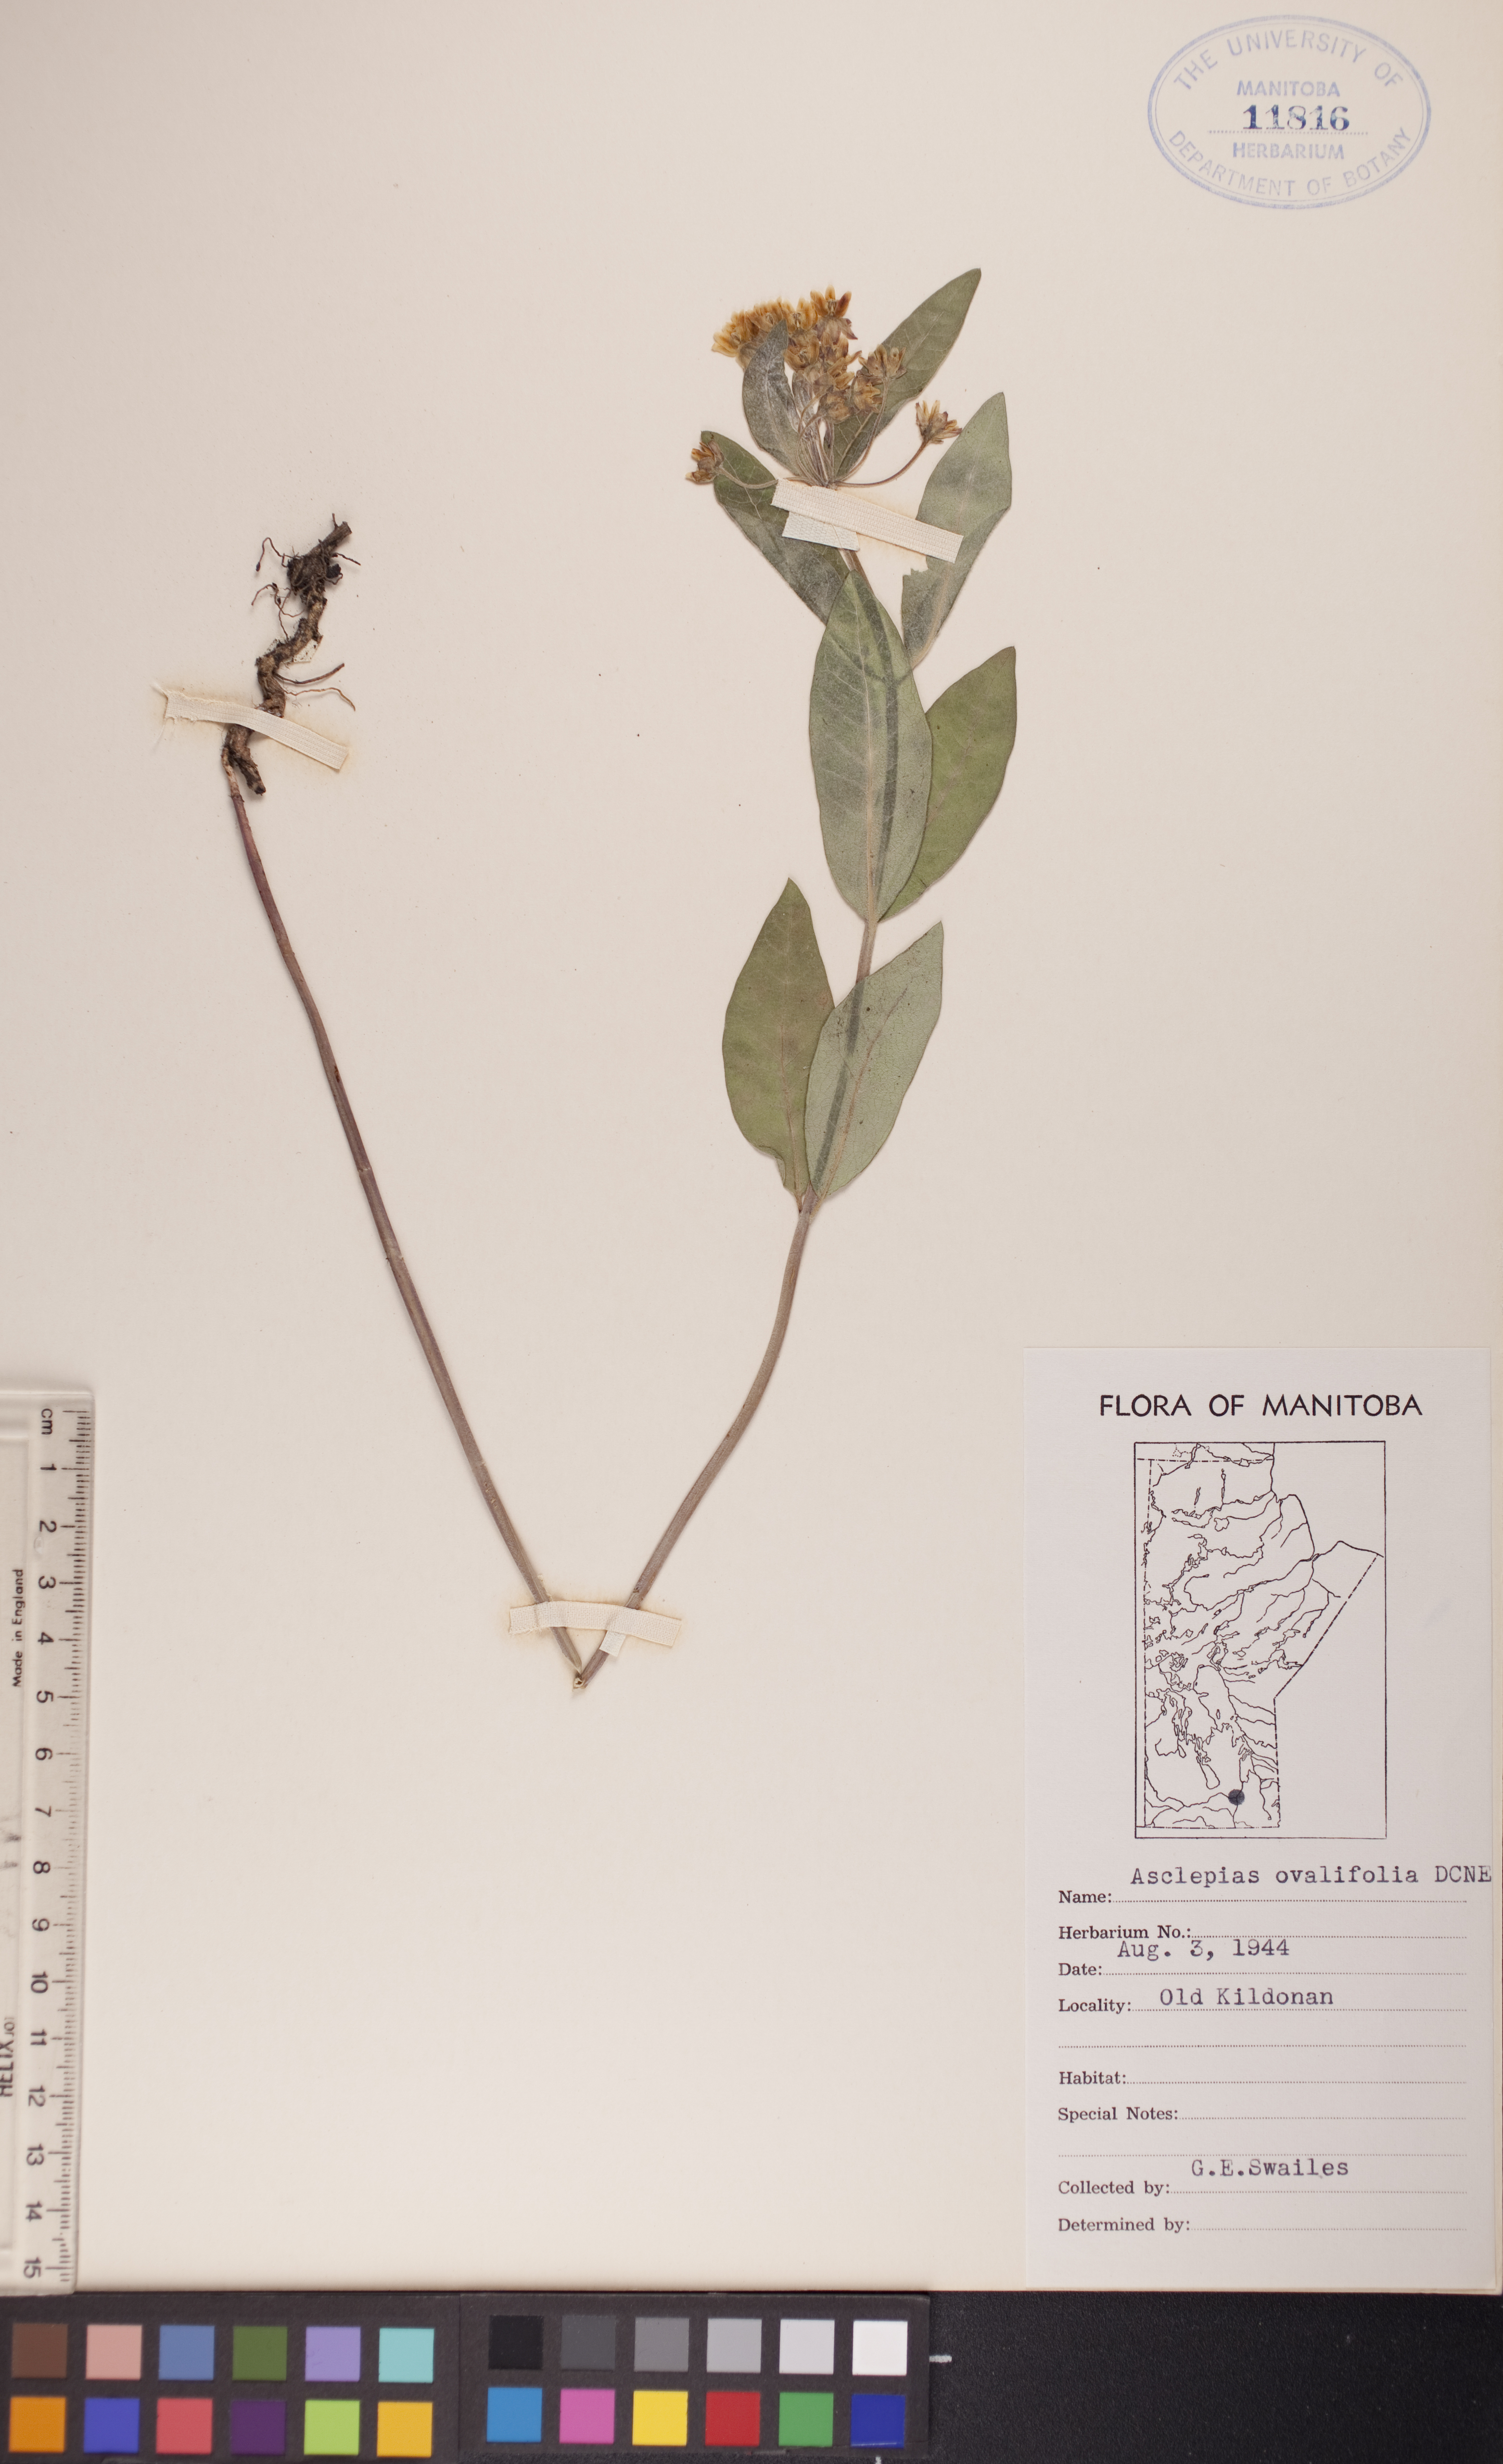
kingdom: Plantae
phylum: Tracheophyta
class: Magnoliopsida
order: Gentianales
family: Apocynaceae
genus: Asclepias
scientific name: Asclepias ovalifolia
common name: Dwarf milkweed
